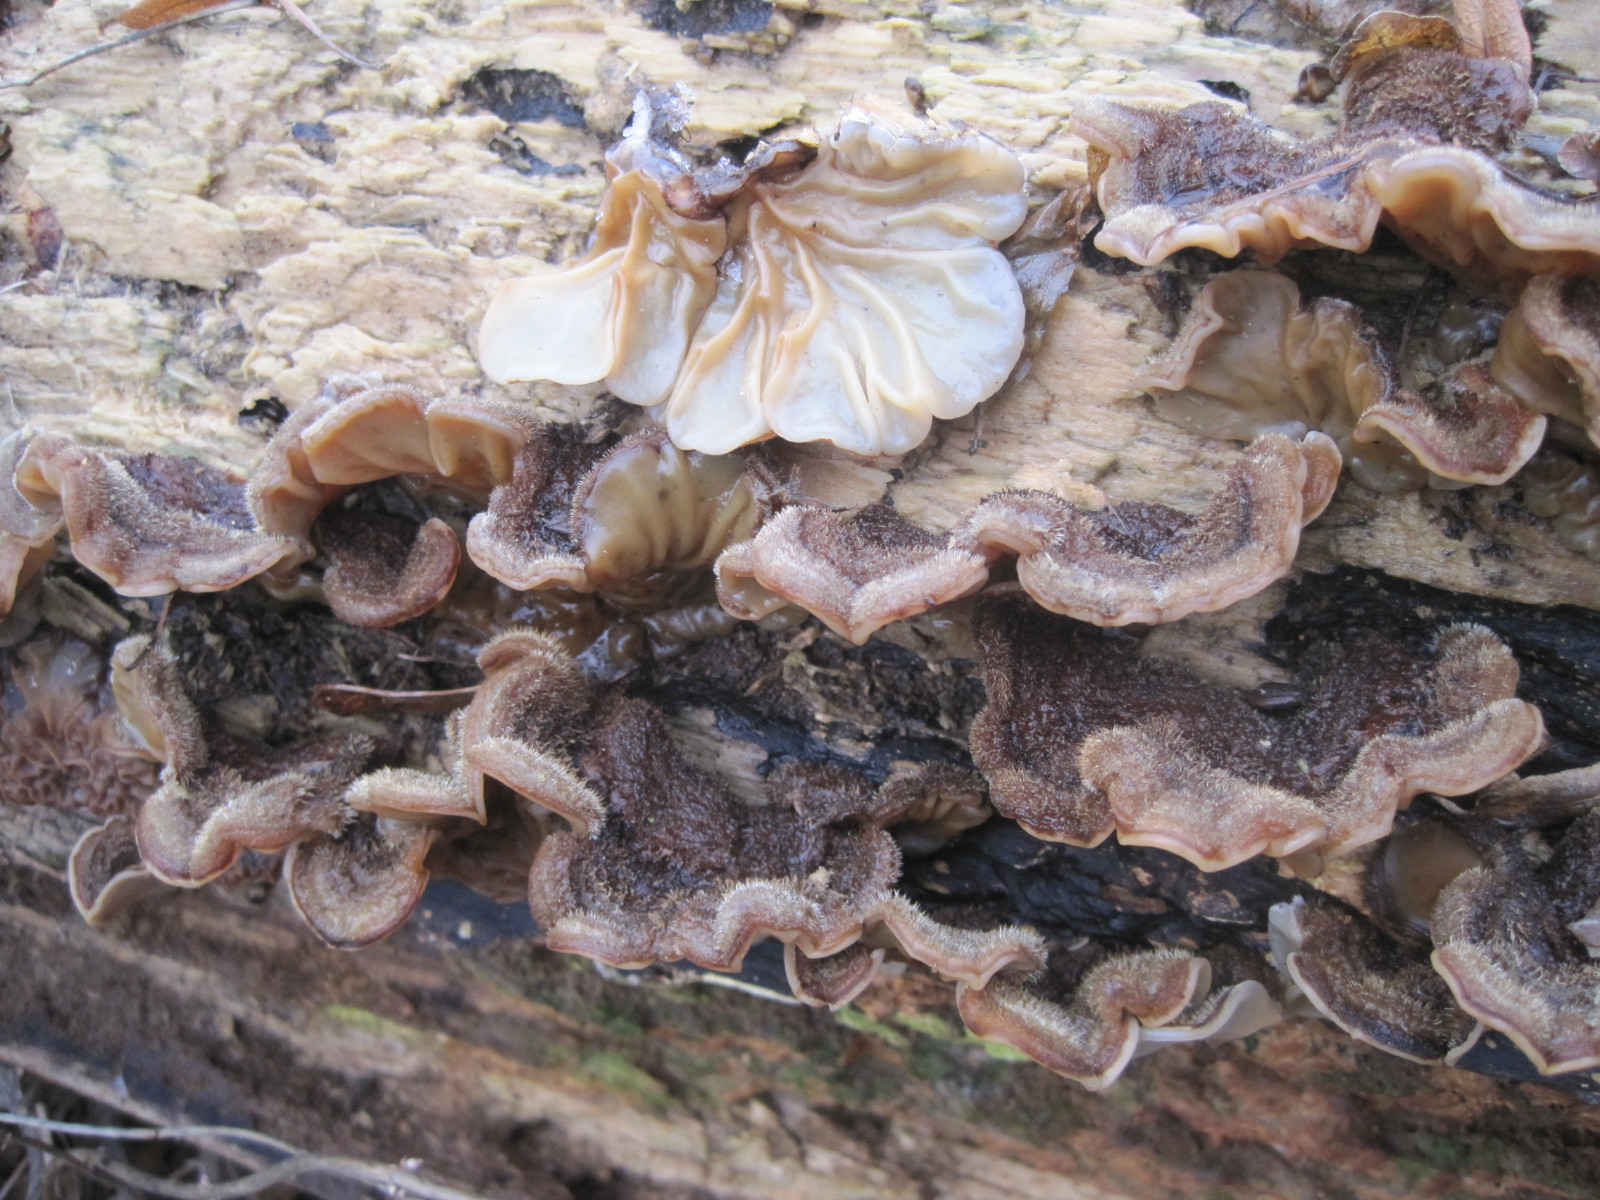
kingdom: Fungi
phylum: Basidiomycota
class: Agaricomycetes
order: Auriculariales
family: Auriculariaceae
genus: Auricularia
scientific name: Auricularia mesenterica
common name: håret judasøre
